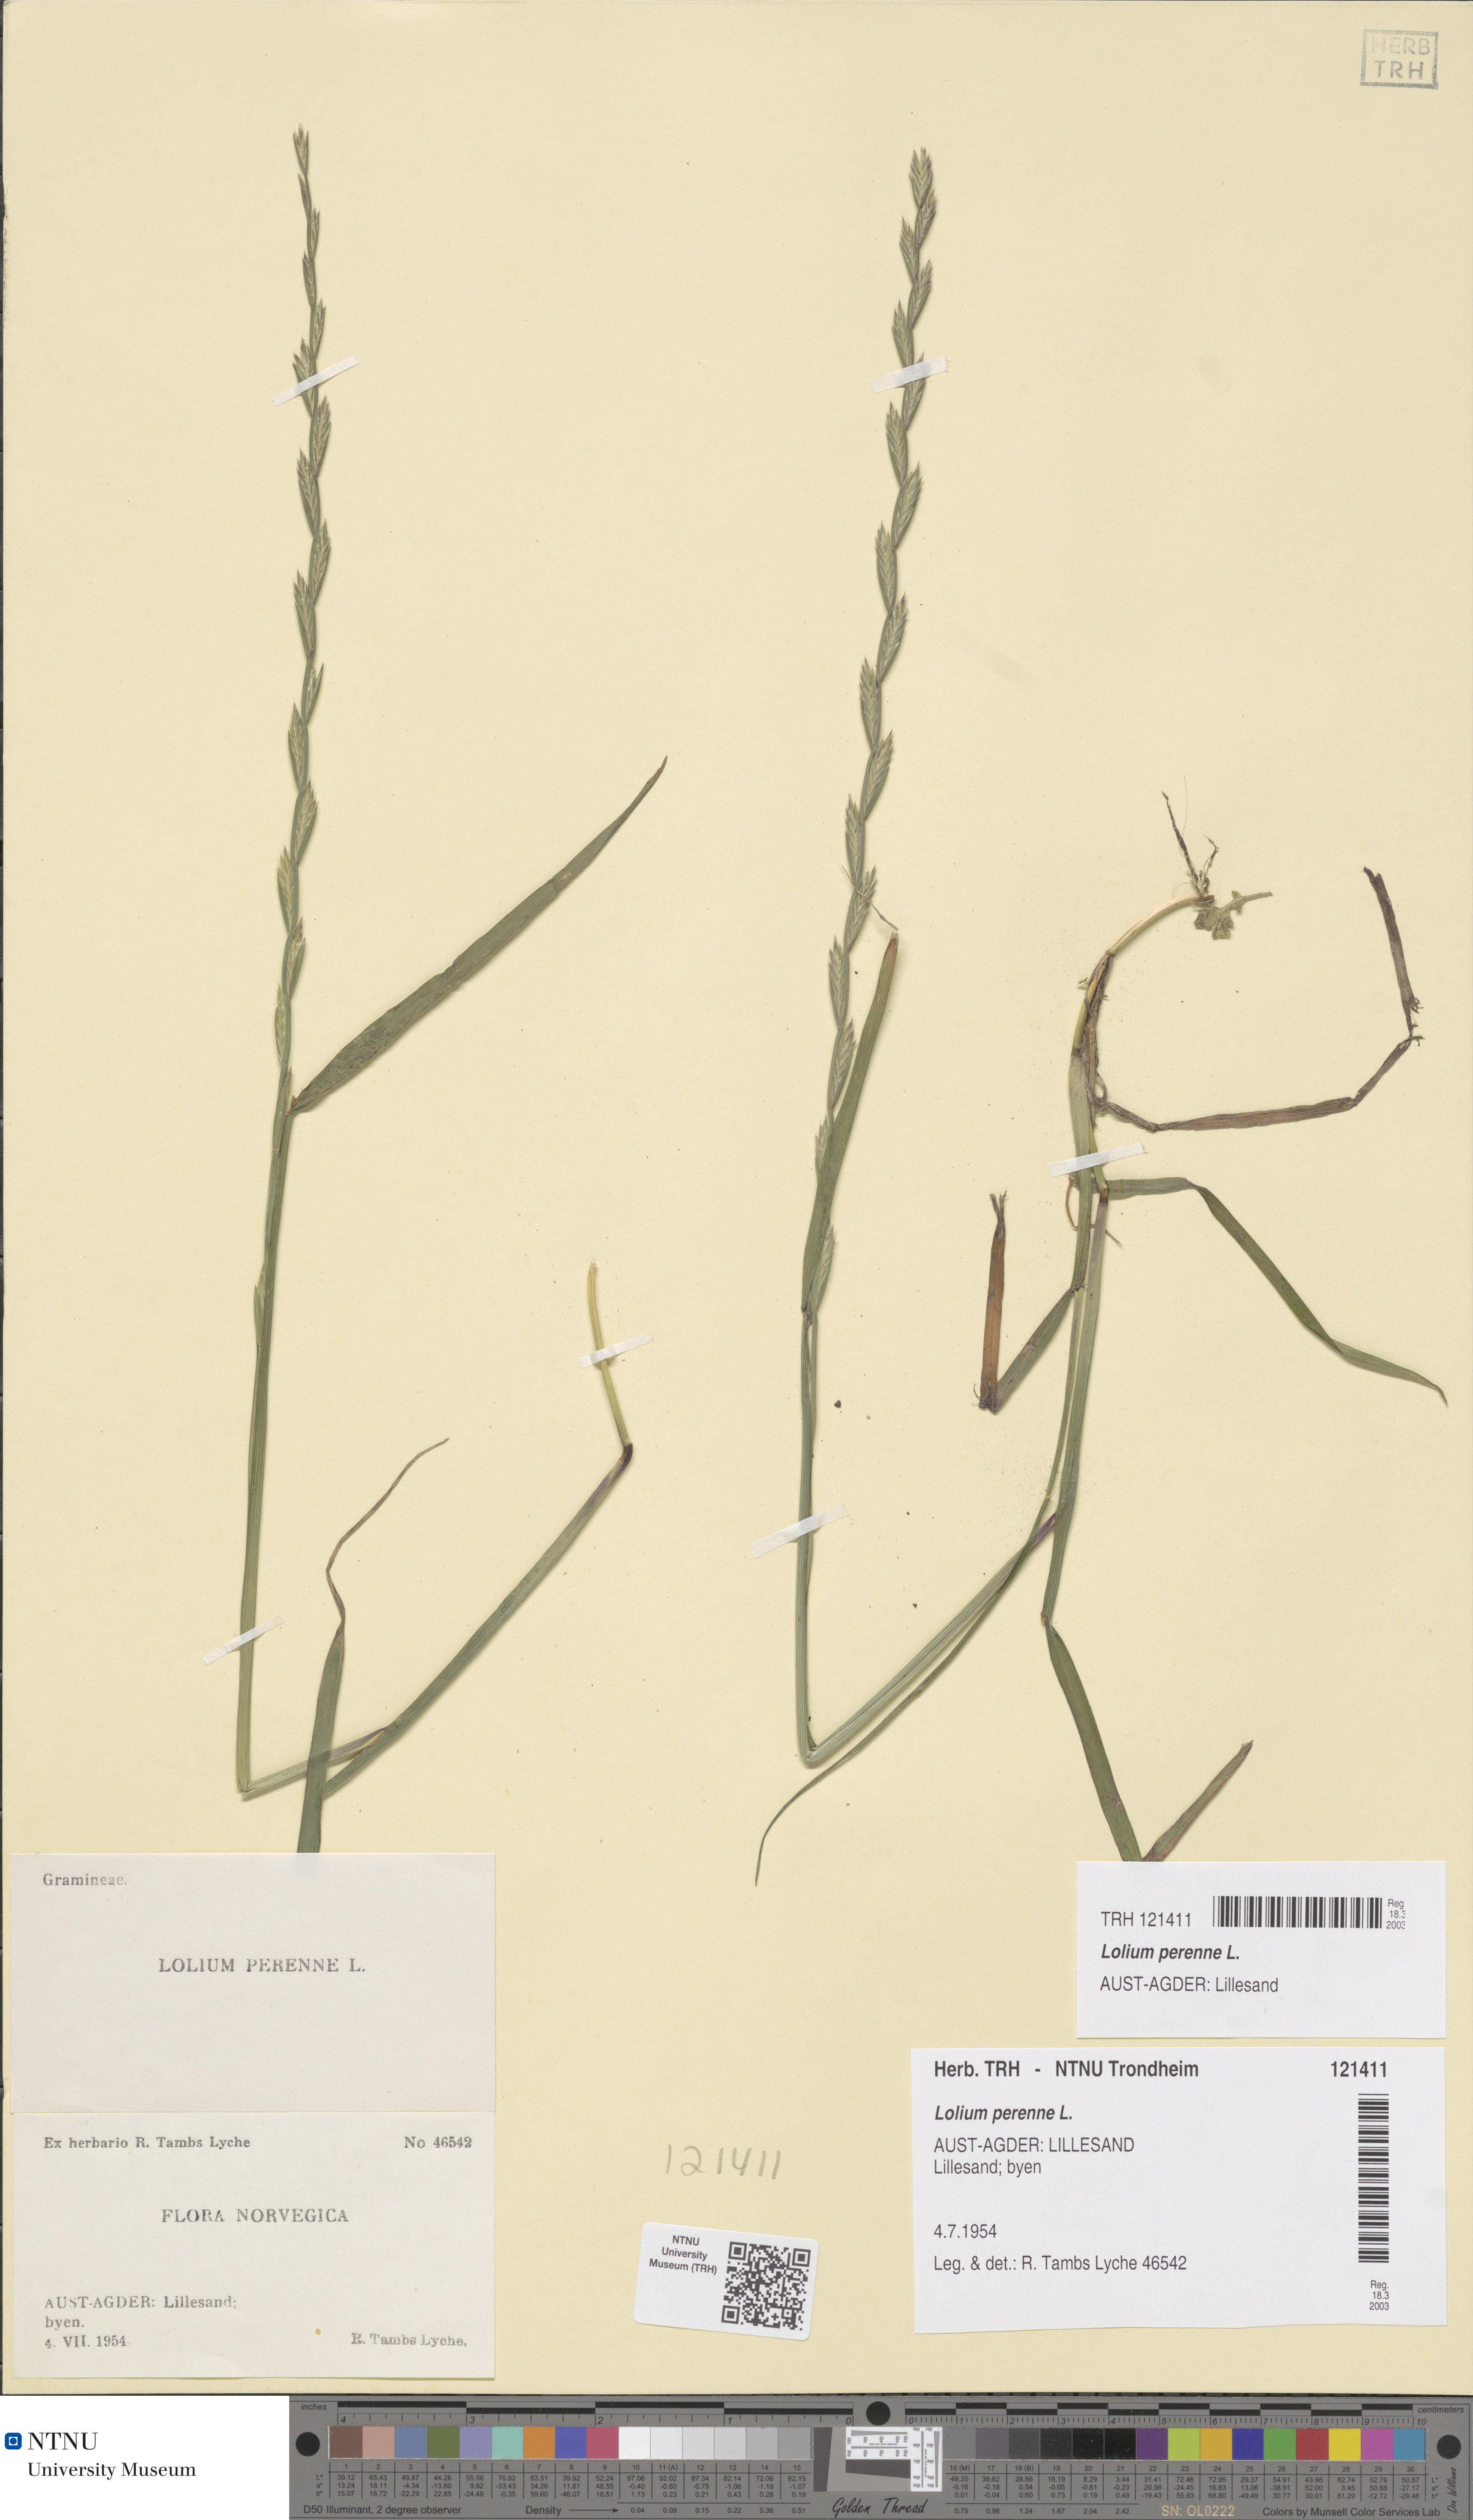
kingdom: Plantae
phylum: Tracheophyta
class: Liliopsida
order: Poales
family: Poaceae
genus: Lolium
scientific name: Lolium perenne
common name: Perennial ryegrass
